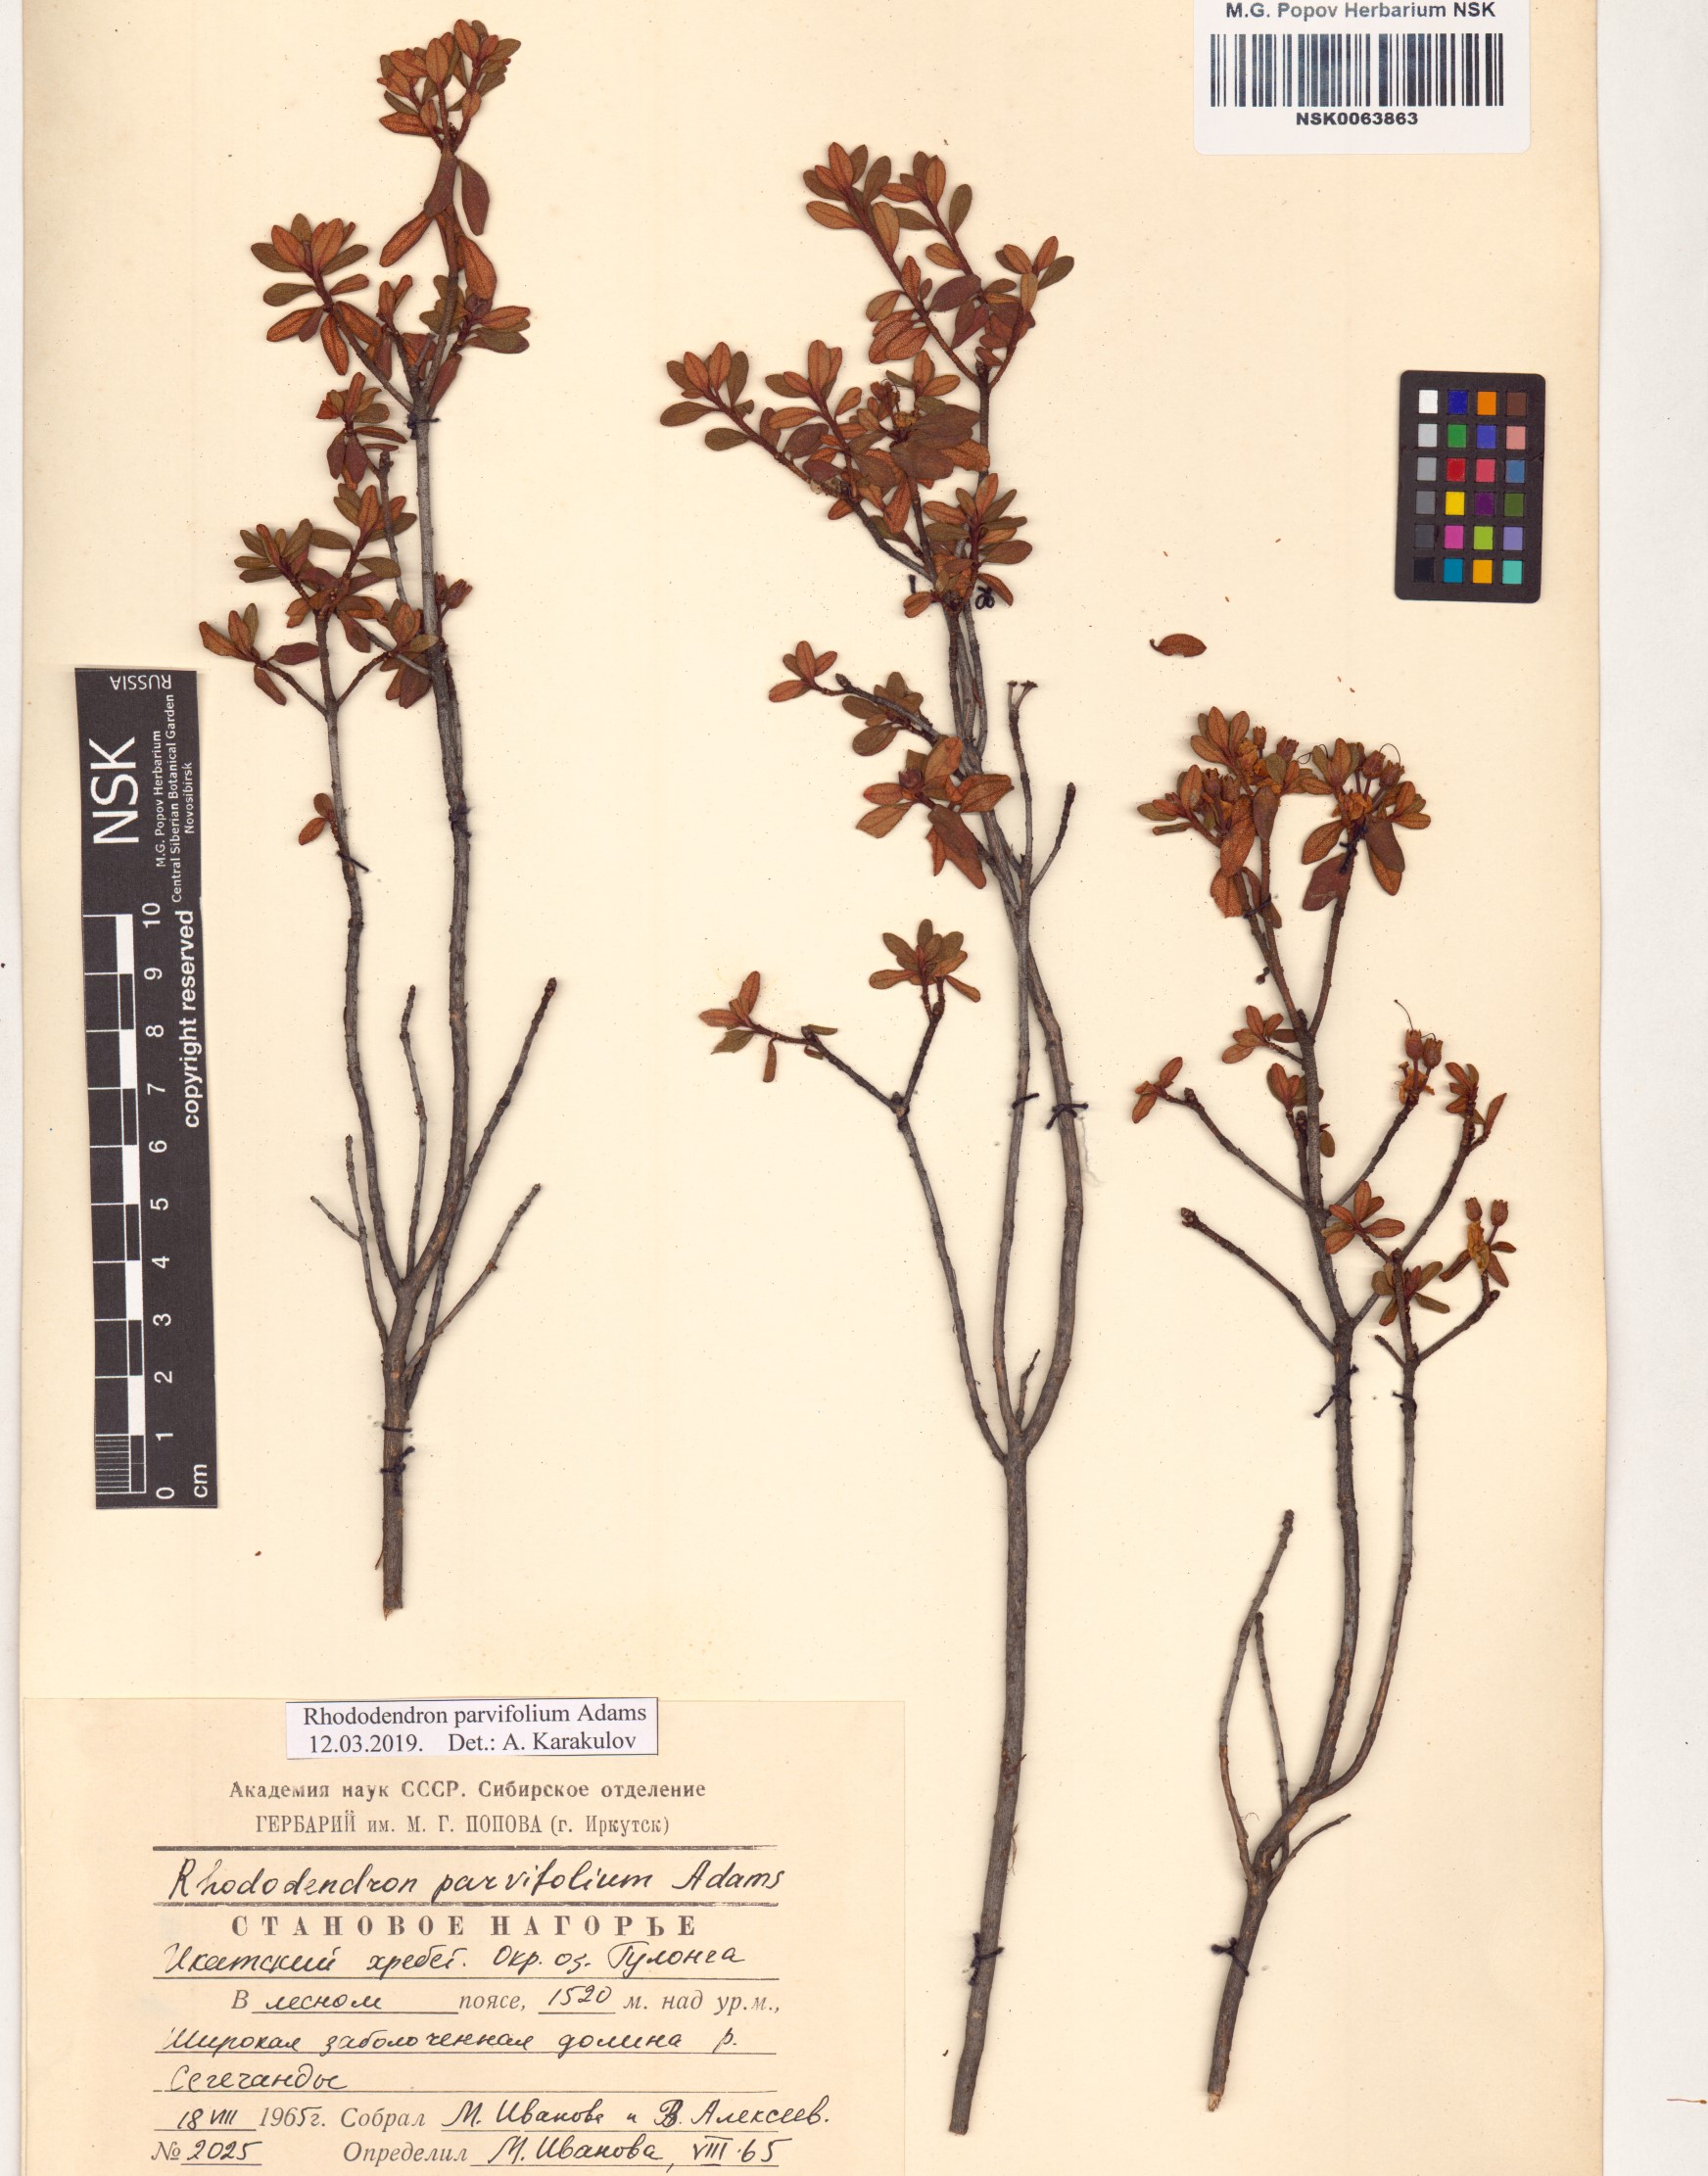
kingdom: Plantae
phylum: Tracheophyta
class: Magnoliopsida
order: Ericales
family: Ericaceae
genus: Rhododendron
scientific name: Rhododendron parvifolium
